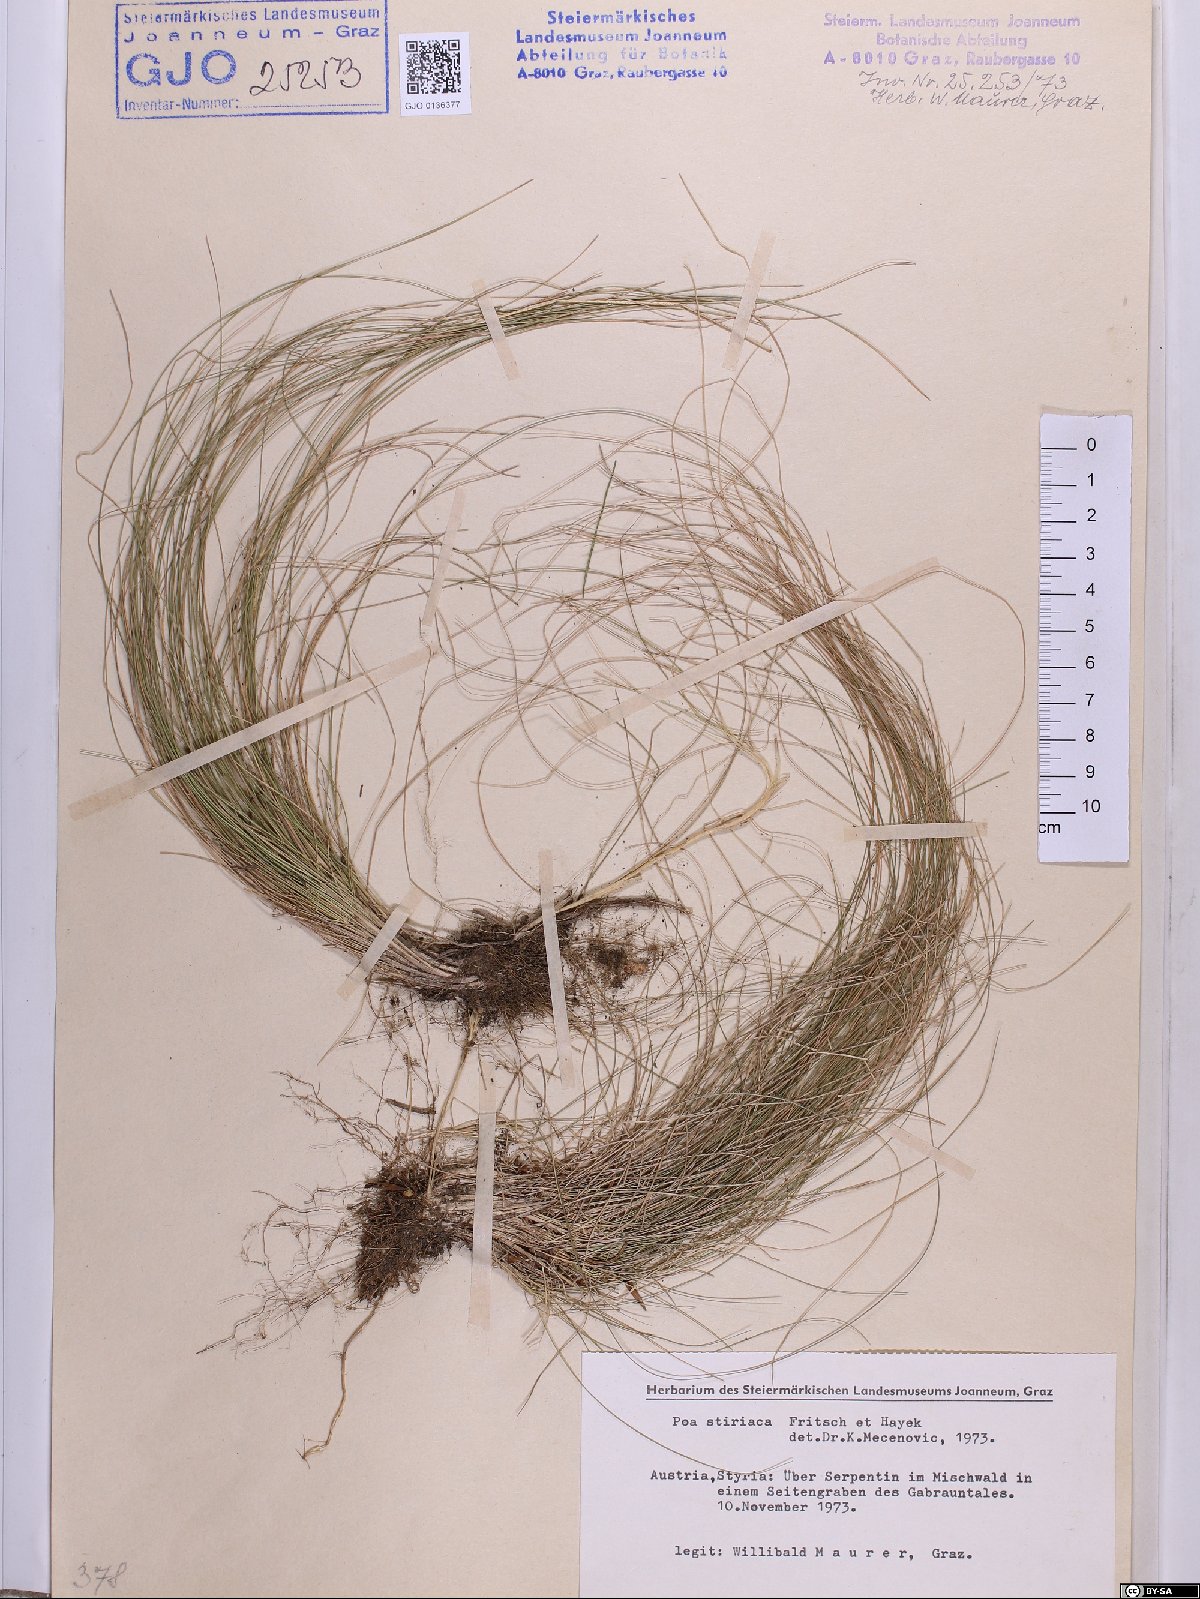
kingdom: Plantae
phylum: Tracheophyta
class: Liliopsida
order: Poales
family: Poaceae
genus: Poa
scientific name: Poa stiriaca
